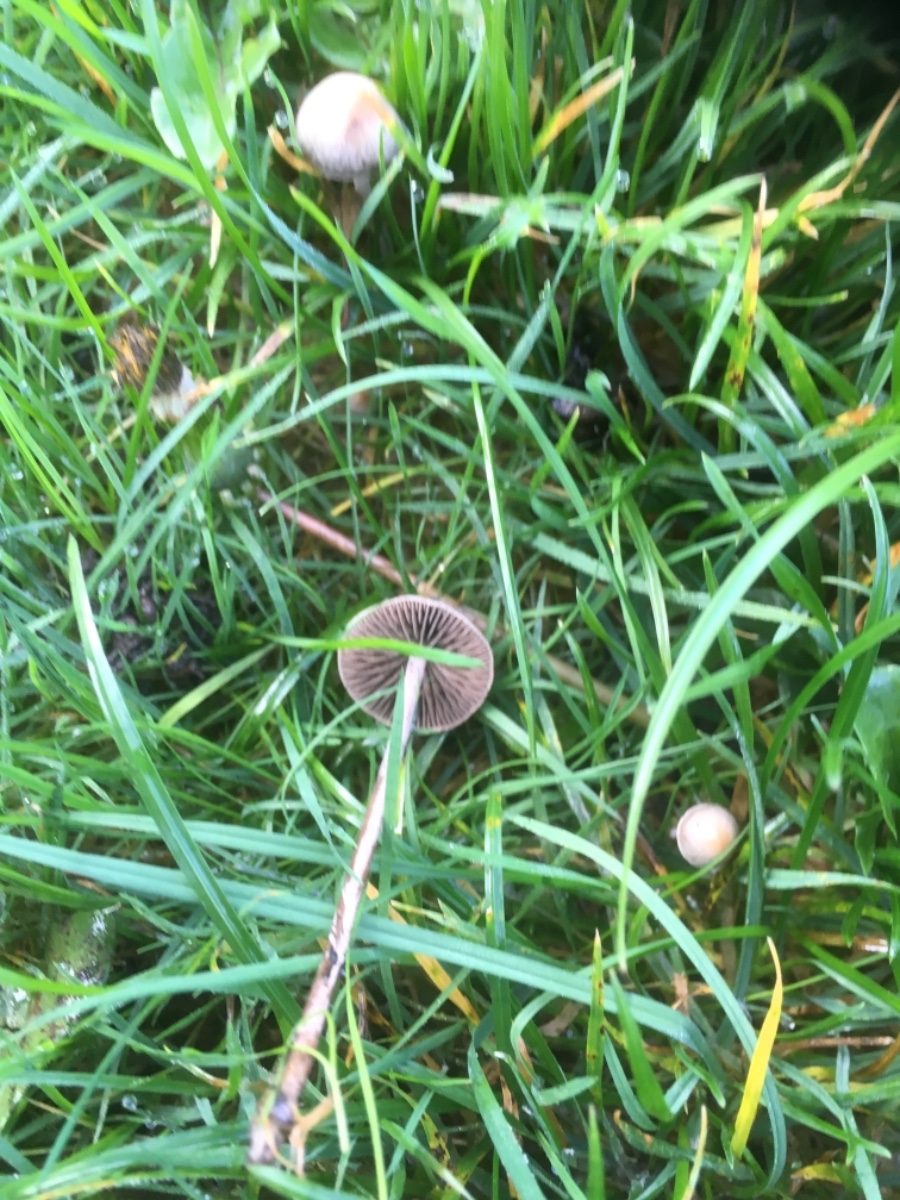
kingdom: Fungi
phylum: Basidiomycota
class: Agaricomycetes
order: Agaricales
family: Bolbitiaceae
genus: Panaeolina
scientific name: Panaeolina foenisecii
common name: høslætsvamp
